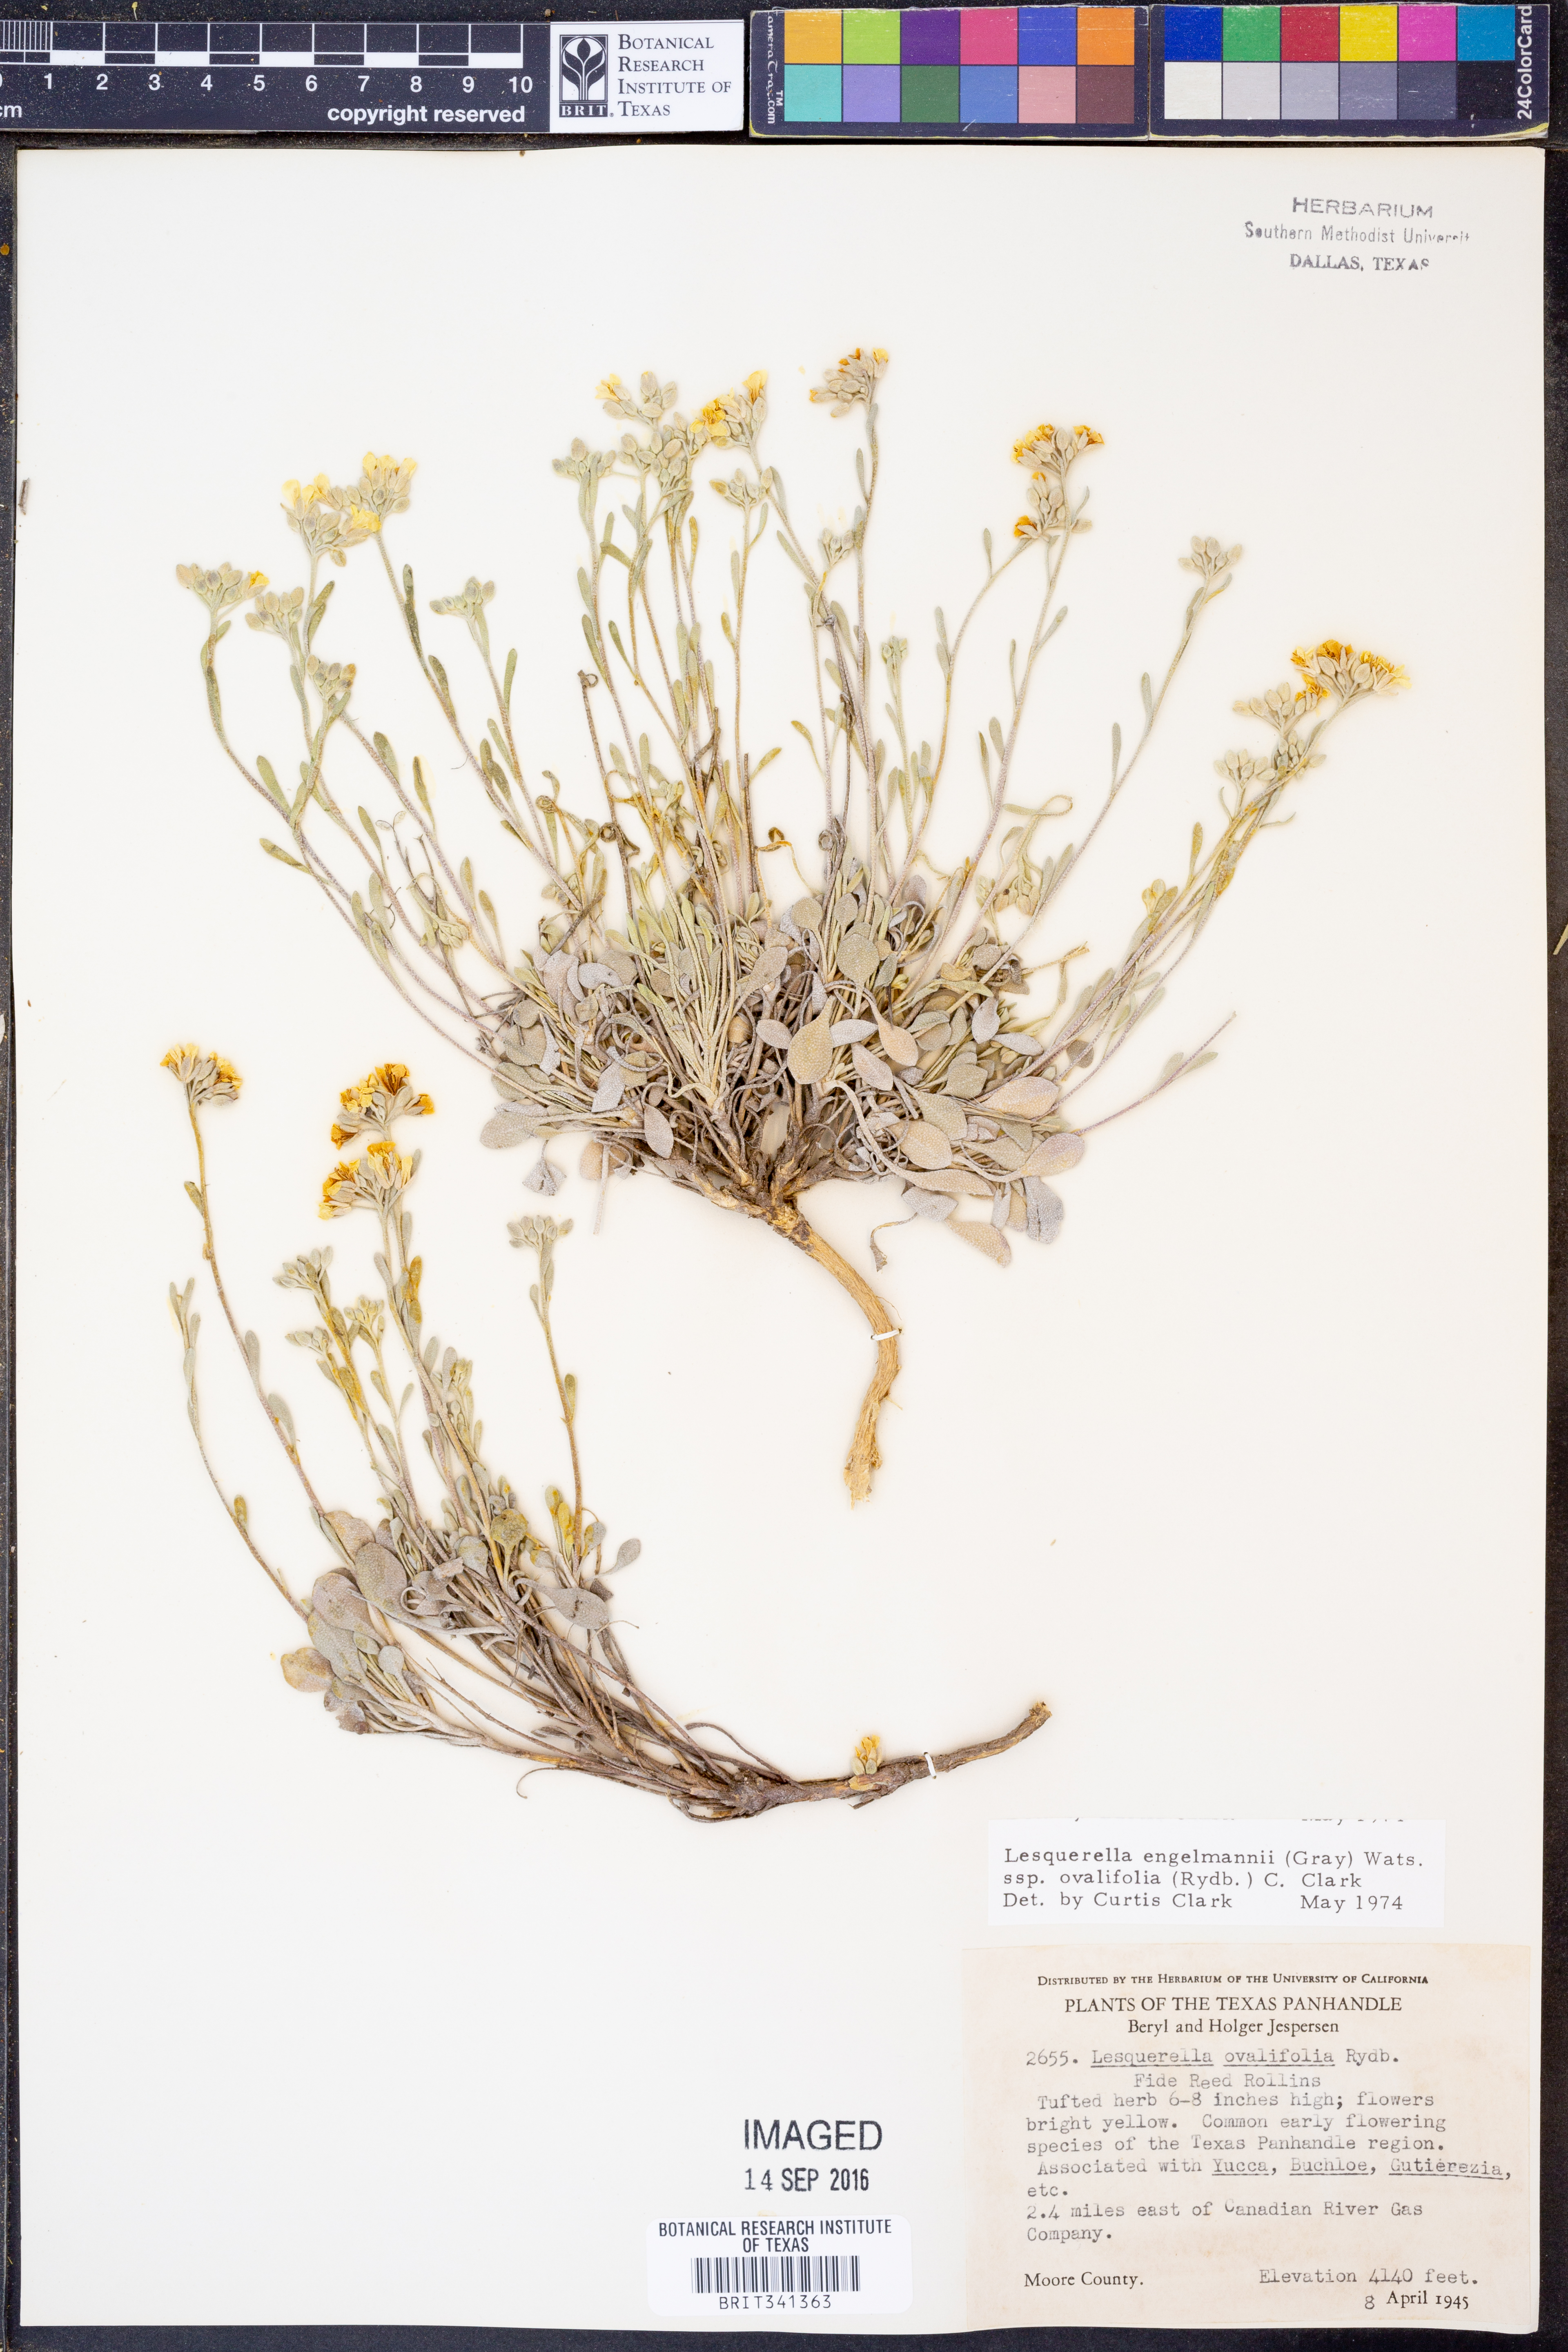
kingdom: Plantae
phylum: Tracheophyta
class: Magnoliopsida
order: Brassicales
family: Brassicaceae
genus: Physaria
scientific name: Physaria ovalifolia
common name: Round-leaf bladderpod
